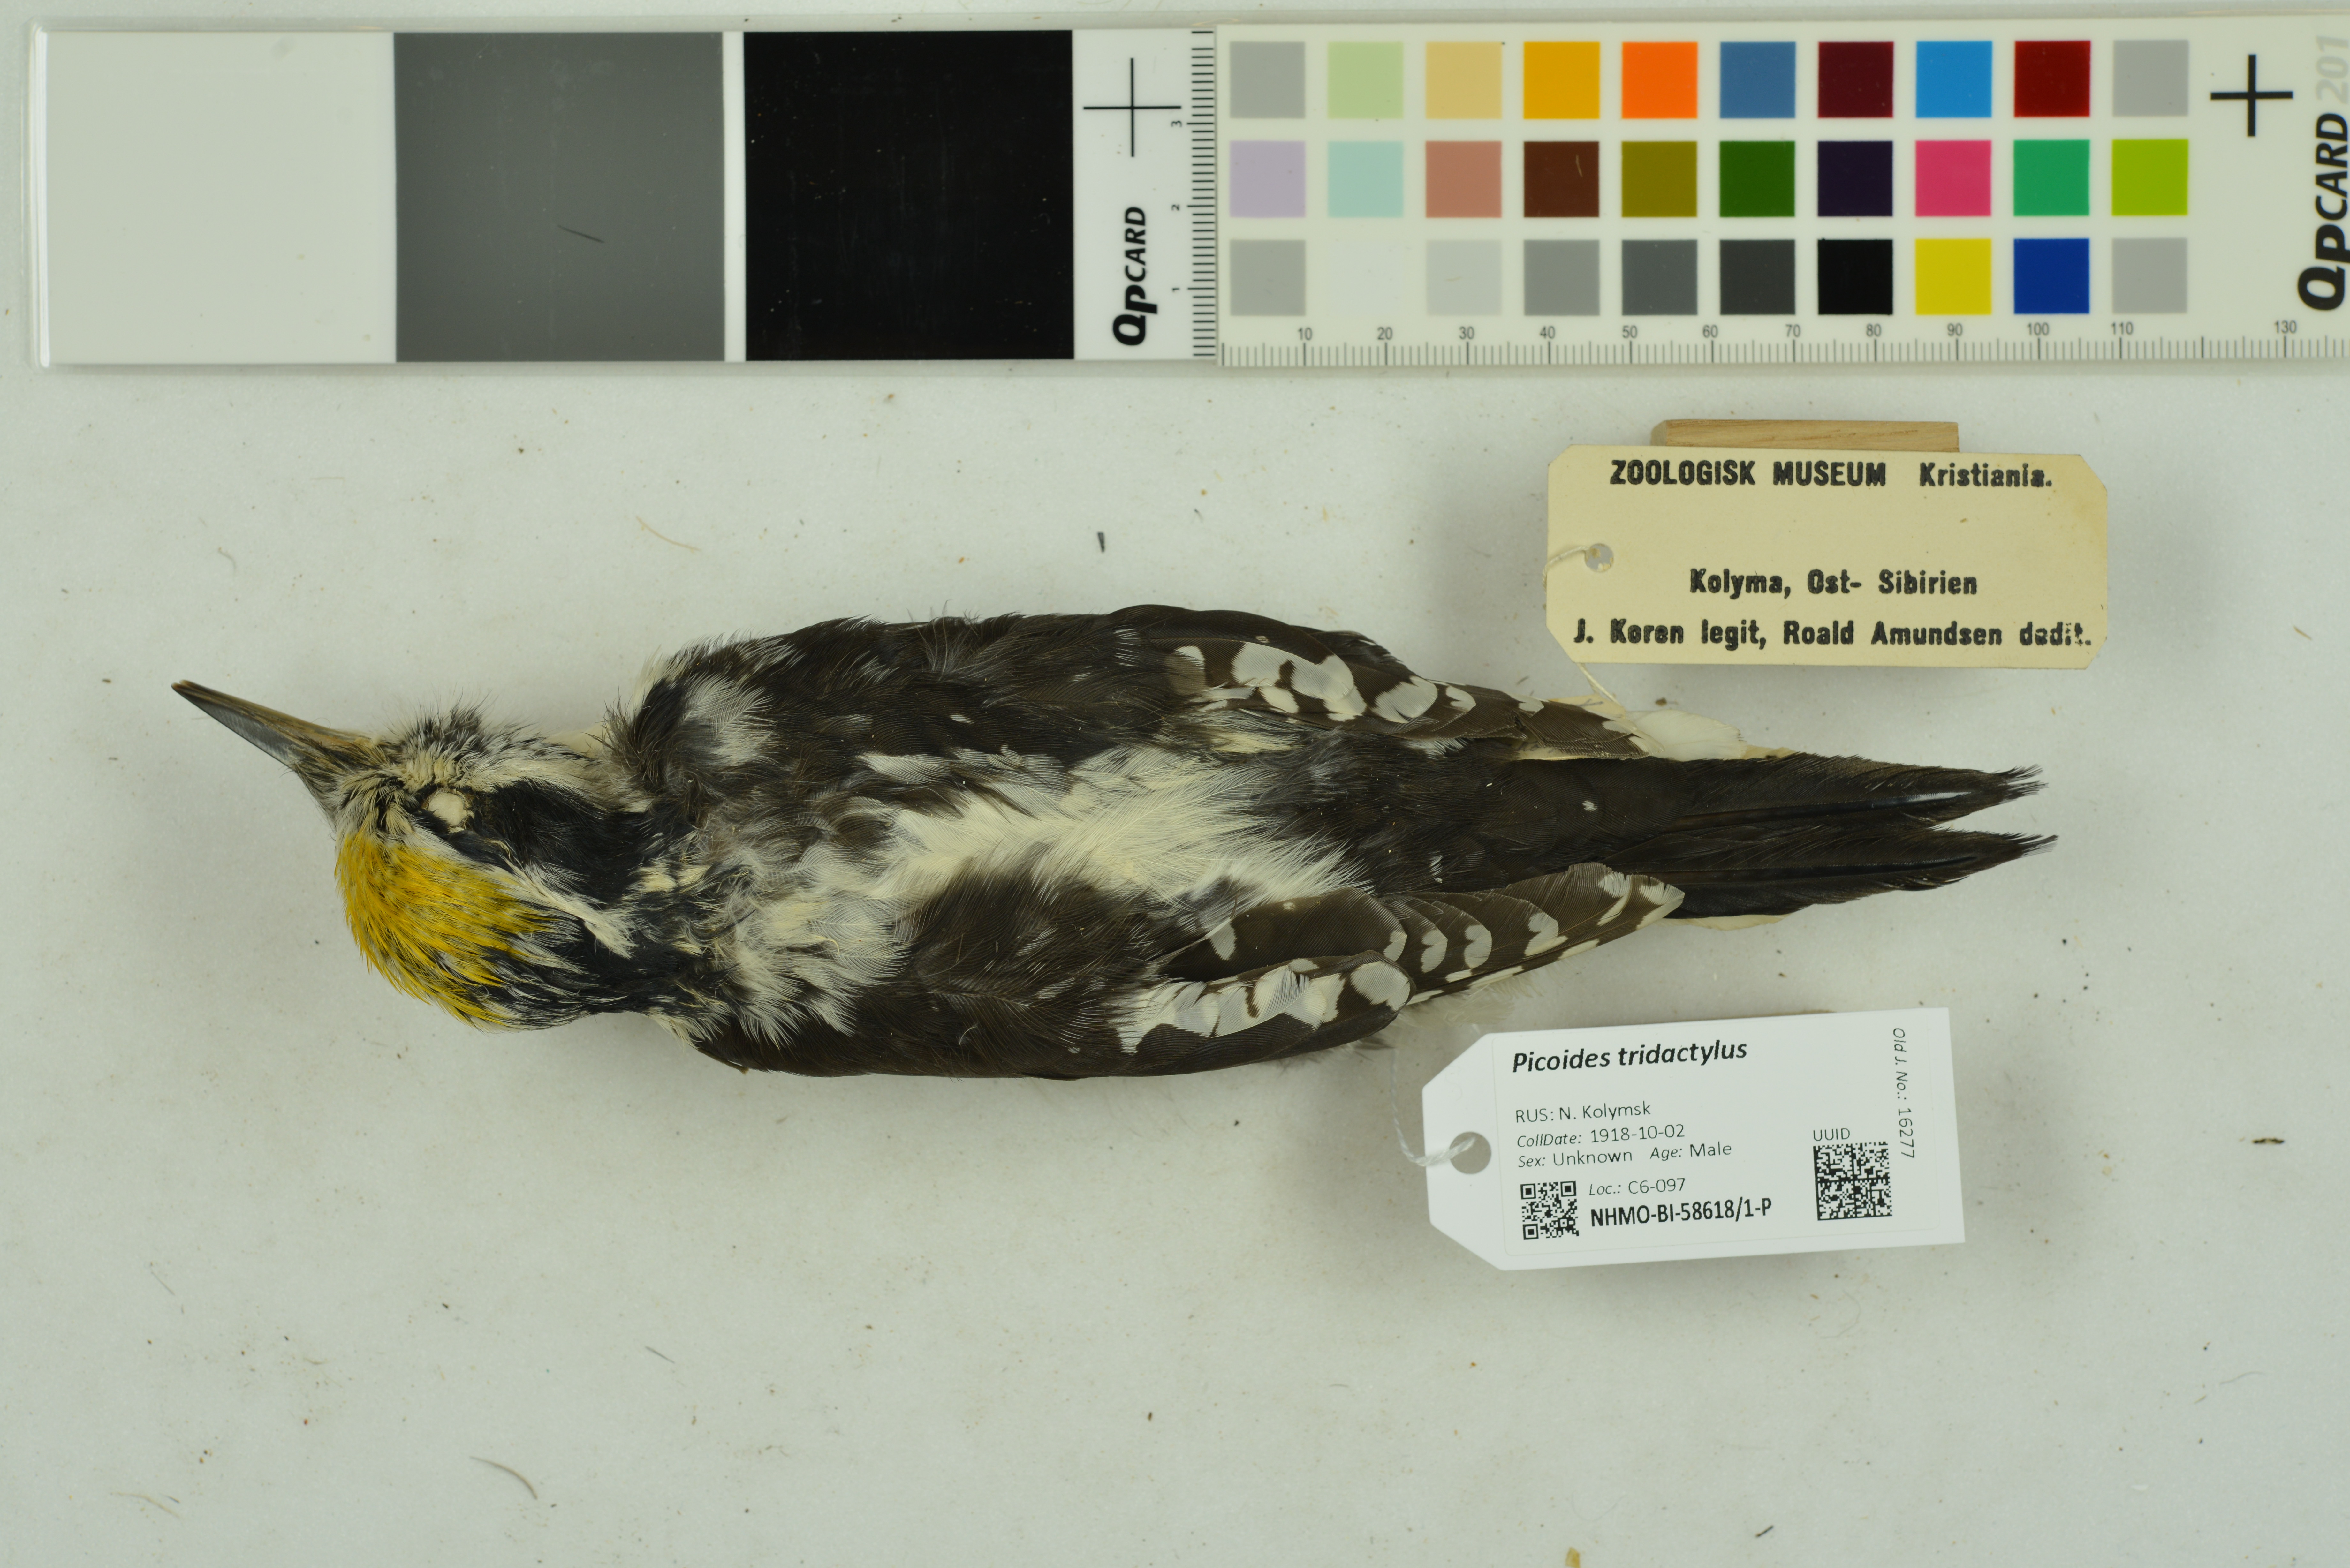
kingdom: Animalia
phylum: Chordata
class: Aves
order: Piciformes
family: Picidae
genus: Picoides
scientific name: Picoides tridactylus
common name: Eurasian three-toed woodpecker
